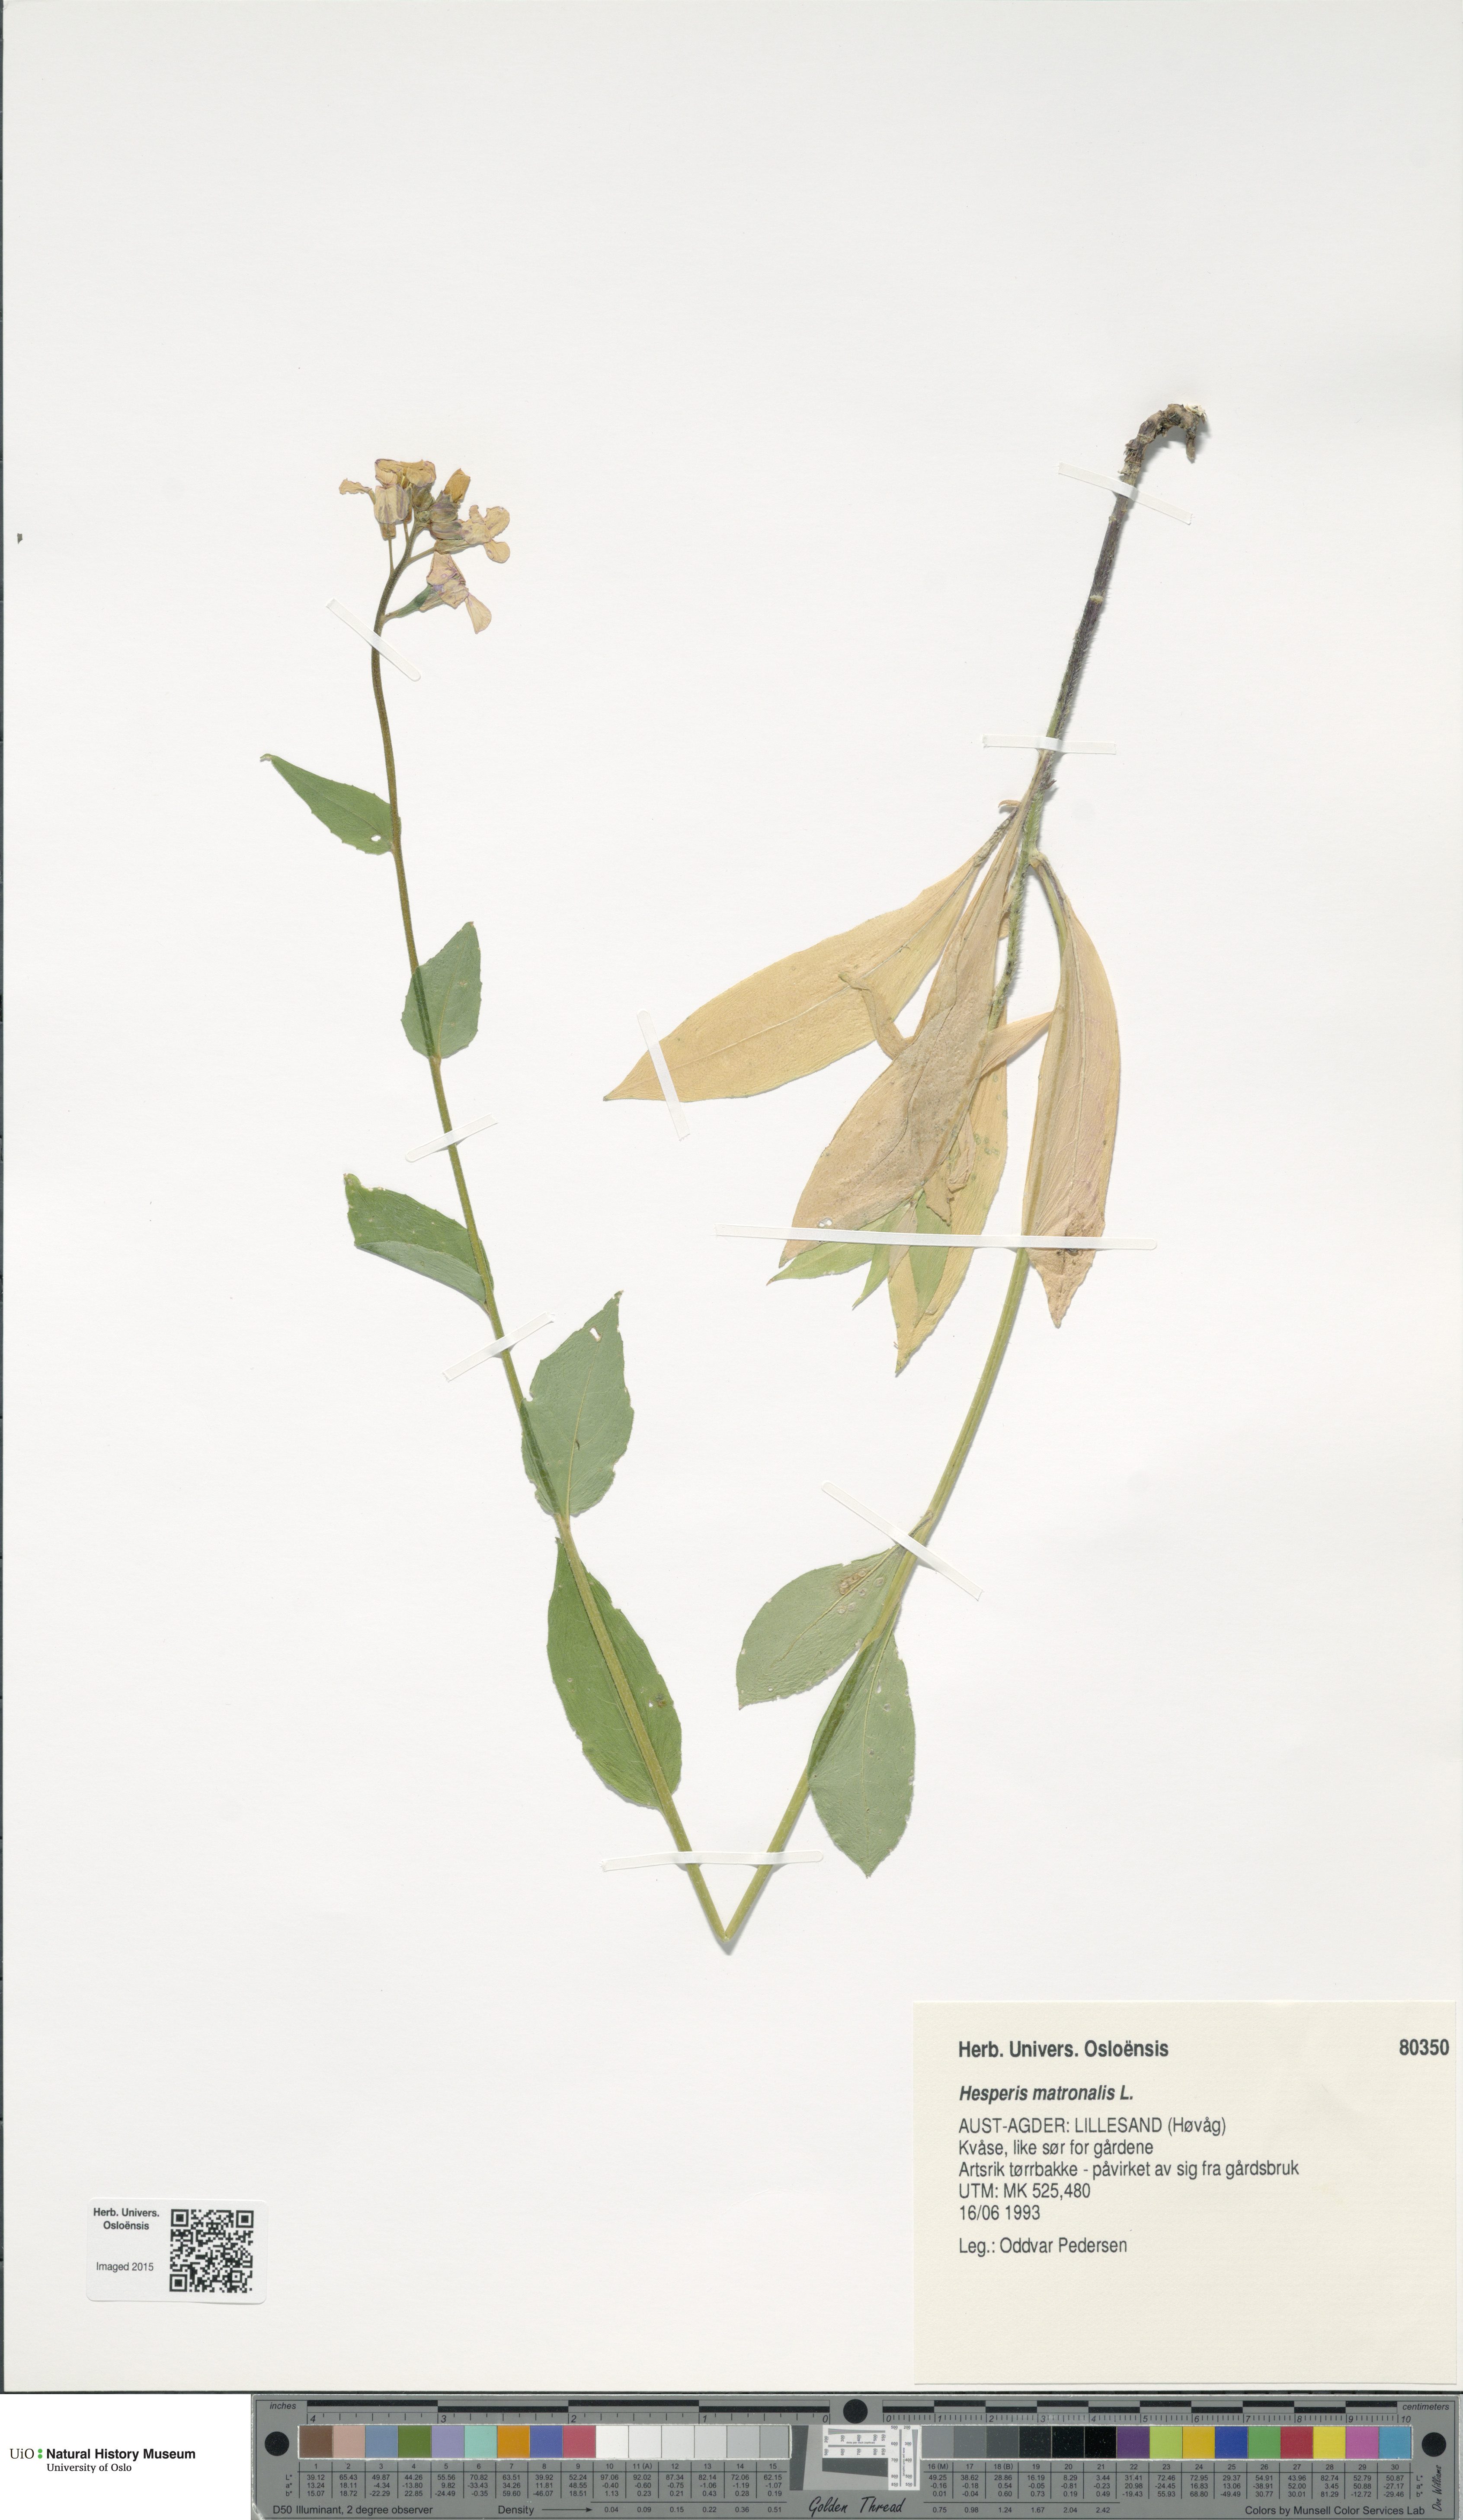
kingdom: Plantae
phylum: Tracheophyta
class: Magnoliopsida
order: Brassicales
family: Brassicaceae
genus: Hesperis
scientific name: Hesperis matronalis
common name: Dame's-violet
